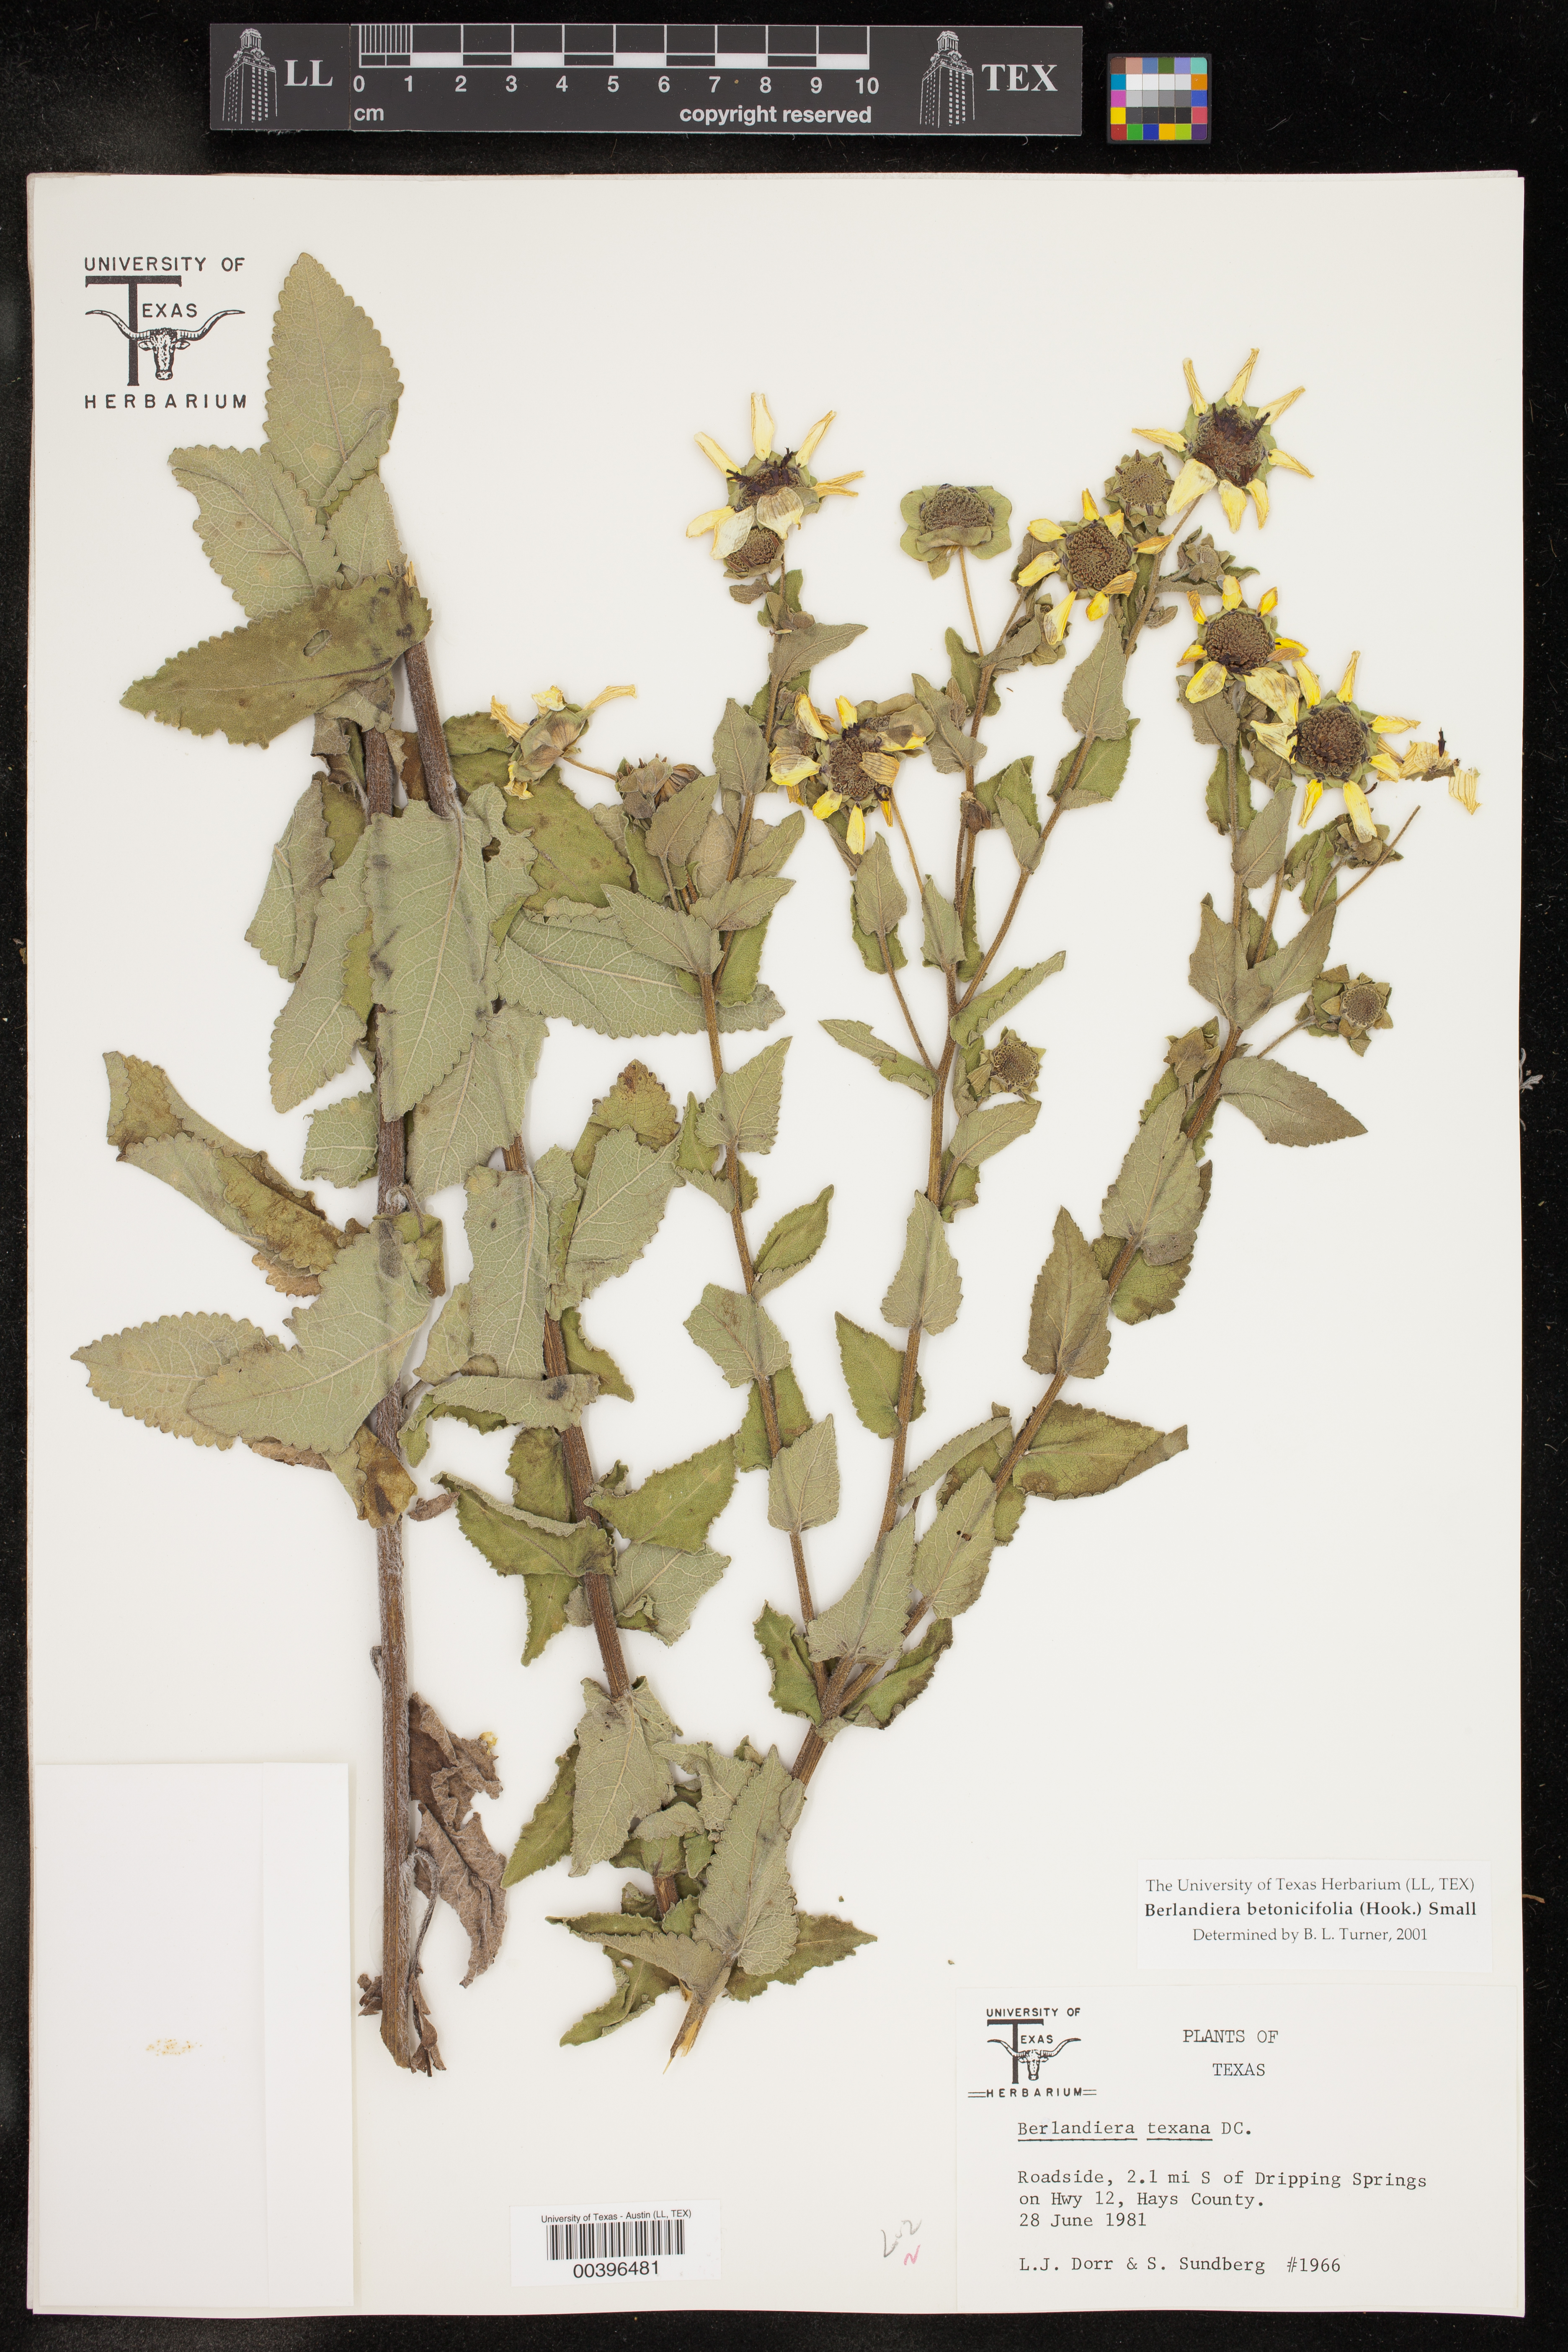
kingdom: Plantae
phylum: Tracheophyta
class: Magnoliopsida
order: Asterales
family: Asteraceae
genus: Berlandiera
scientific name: Berlandiera betonicifolia
